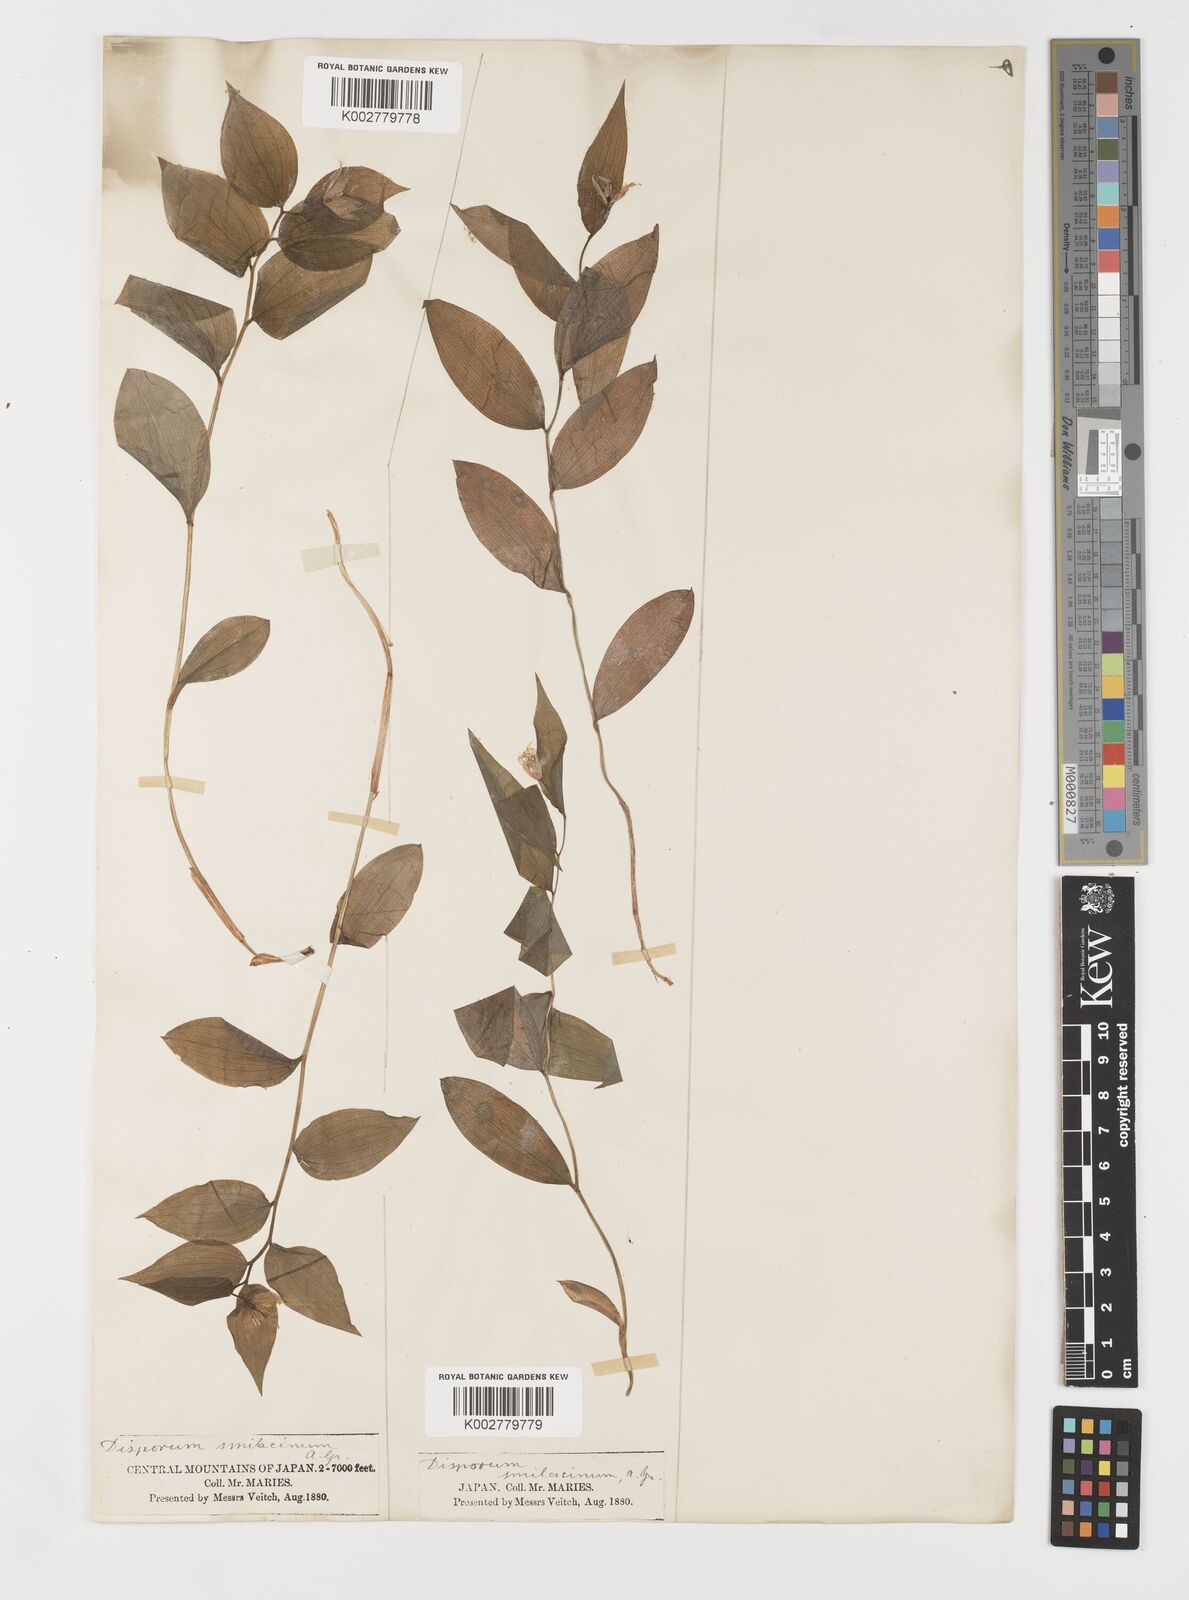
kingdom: Plantae
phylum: Tracheophyta
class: Liliopsida
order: Liliales
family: Colchicaceae
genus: Disporum
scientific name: Disporum smilacinum
